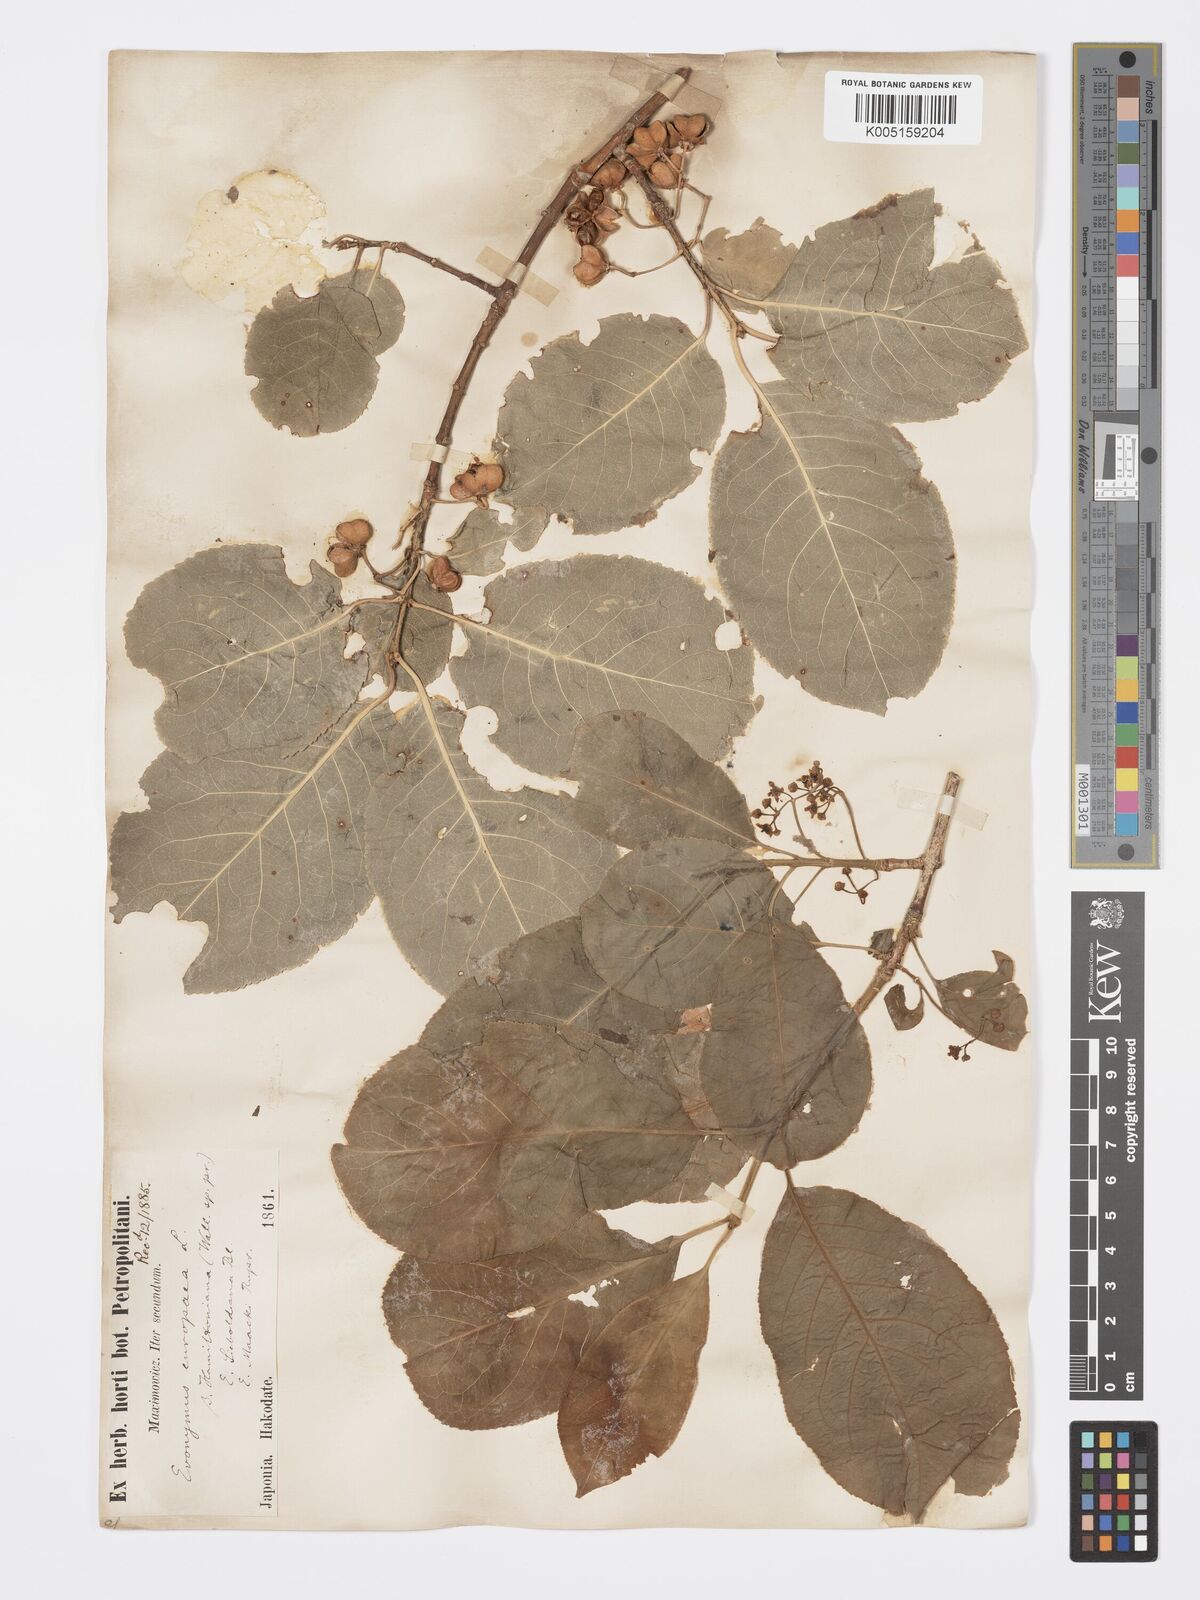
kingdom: Plantae
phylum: Tracheophyta
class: Magnoliopsida
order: Celastrales
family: Celastraceae
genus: Euonymus
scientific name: Euonymus hamiltonianus
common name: Hamilton's spindletree
